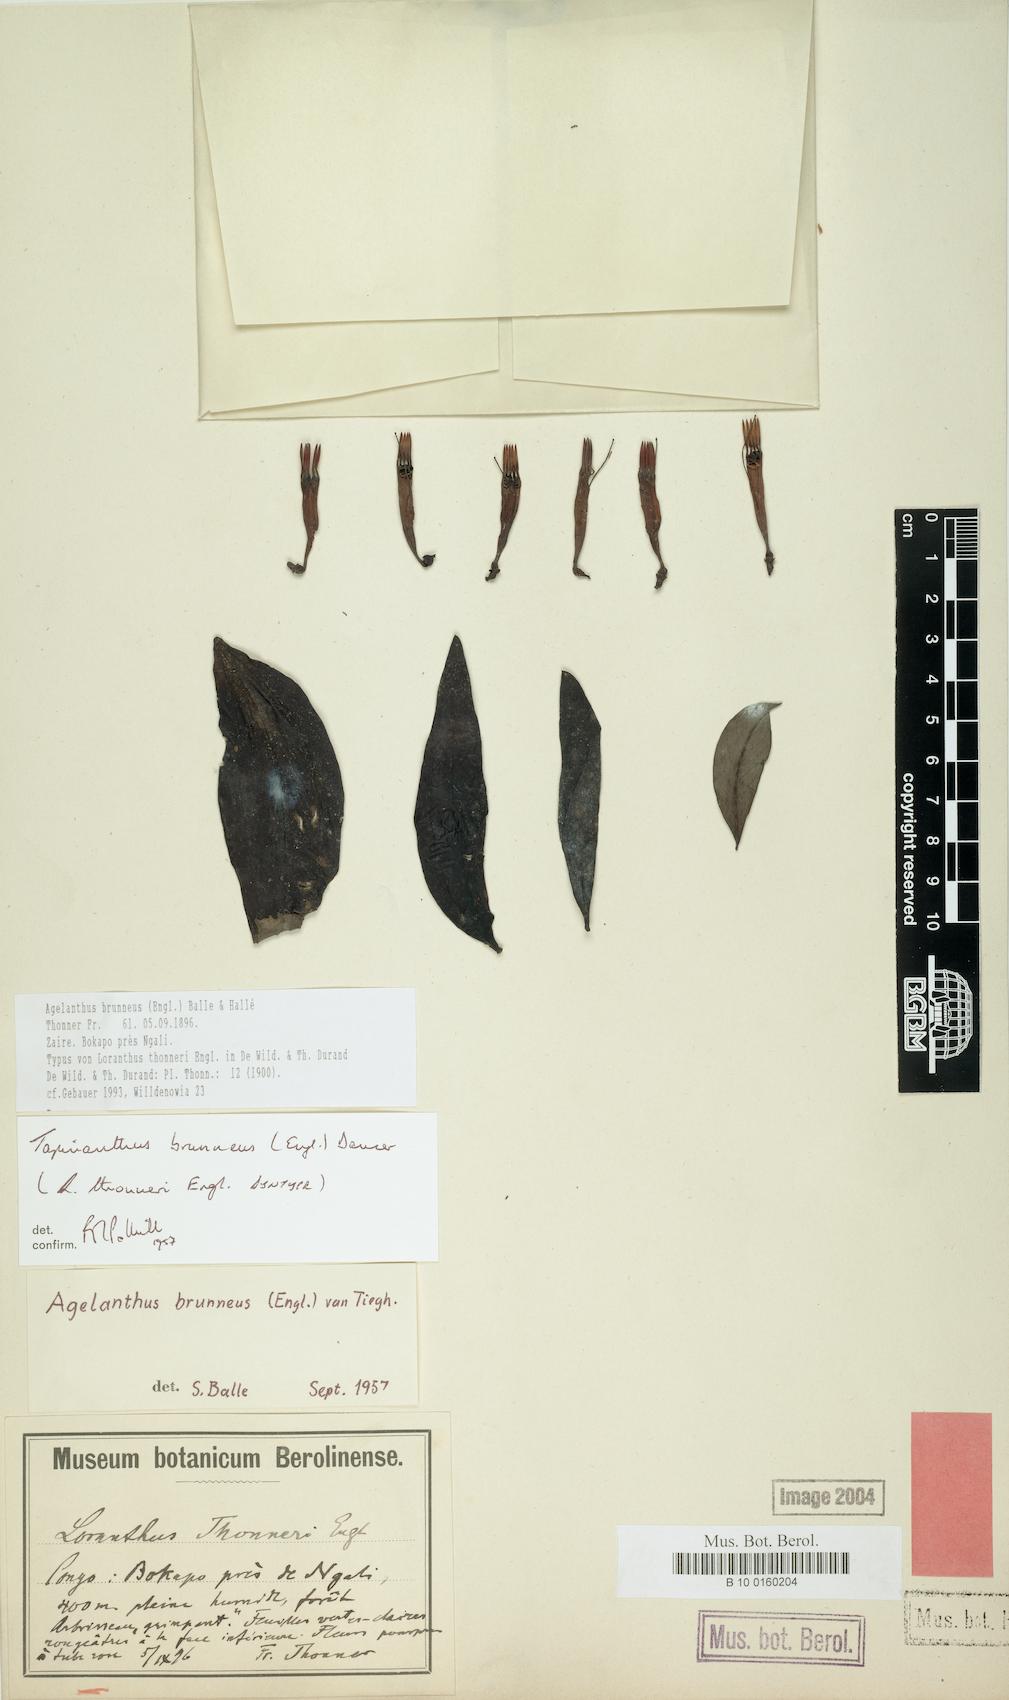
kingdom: Plantae
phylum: Tracheophyta
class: Magnoliopsida
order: Santalales
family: Loranthaceae
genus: Agelanthus
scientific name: Agelanthus brunneus
